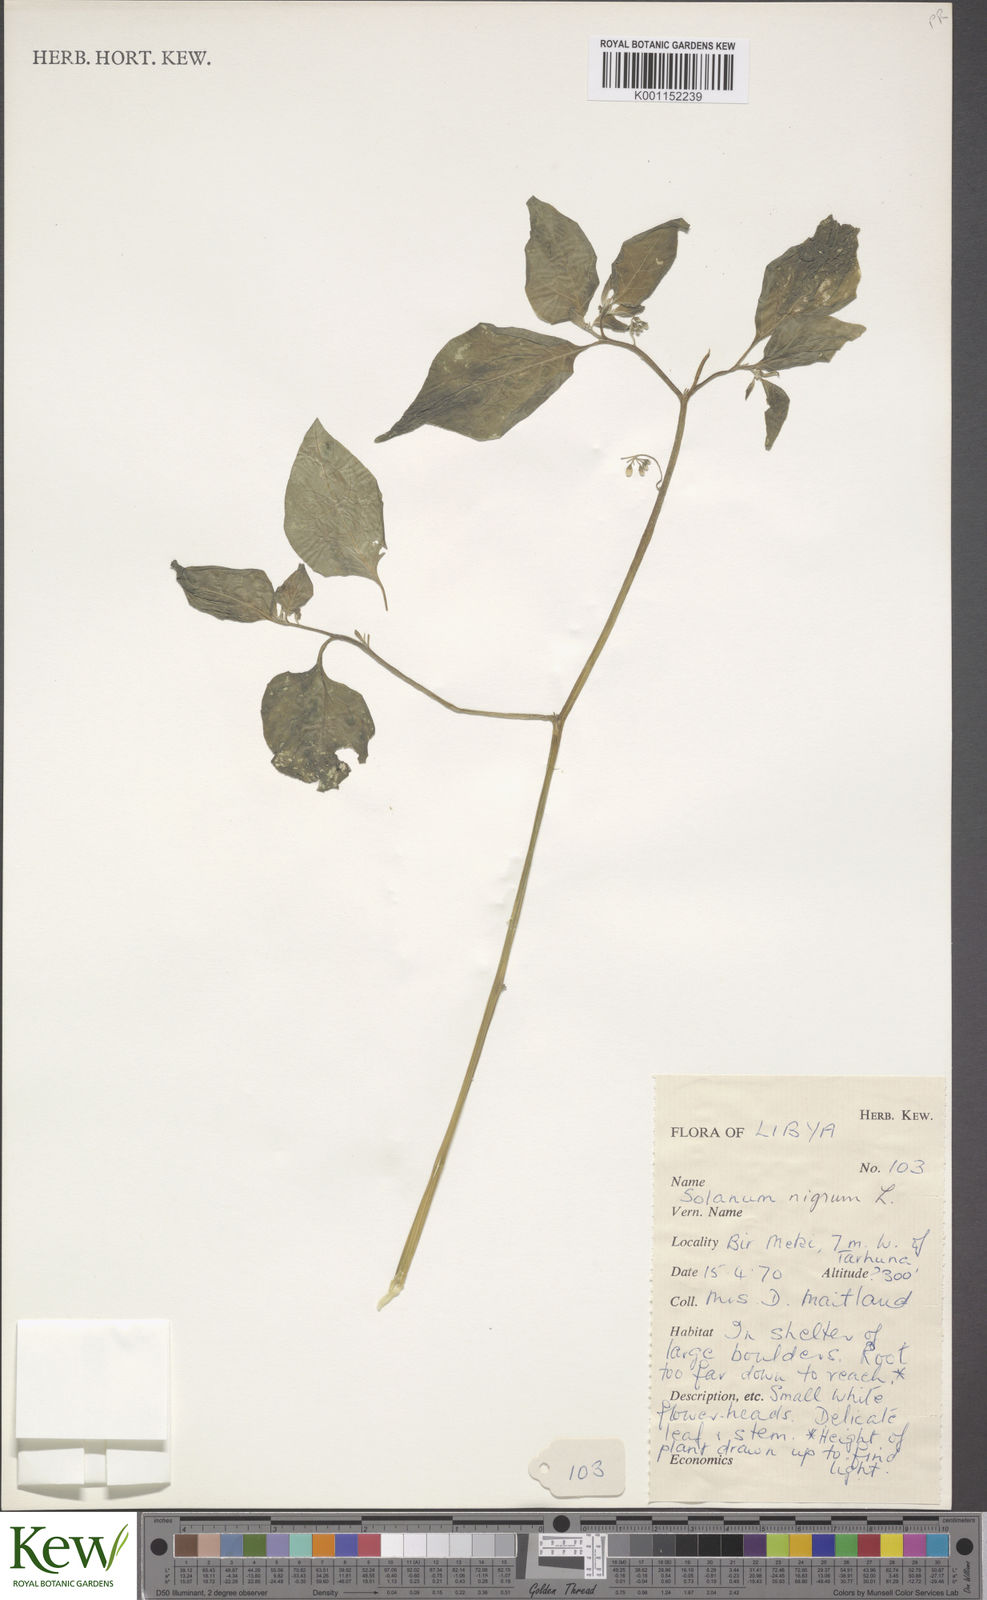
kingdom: Plantae
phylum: Tracheophyta
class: Magnoliopsida
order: Solanales
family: Solanaceae
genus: Solanum
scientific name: Solanum nigrum
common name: Black nightshade
